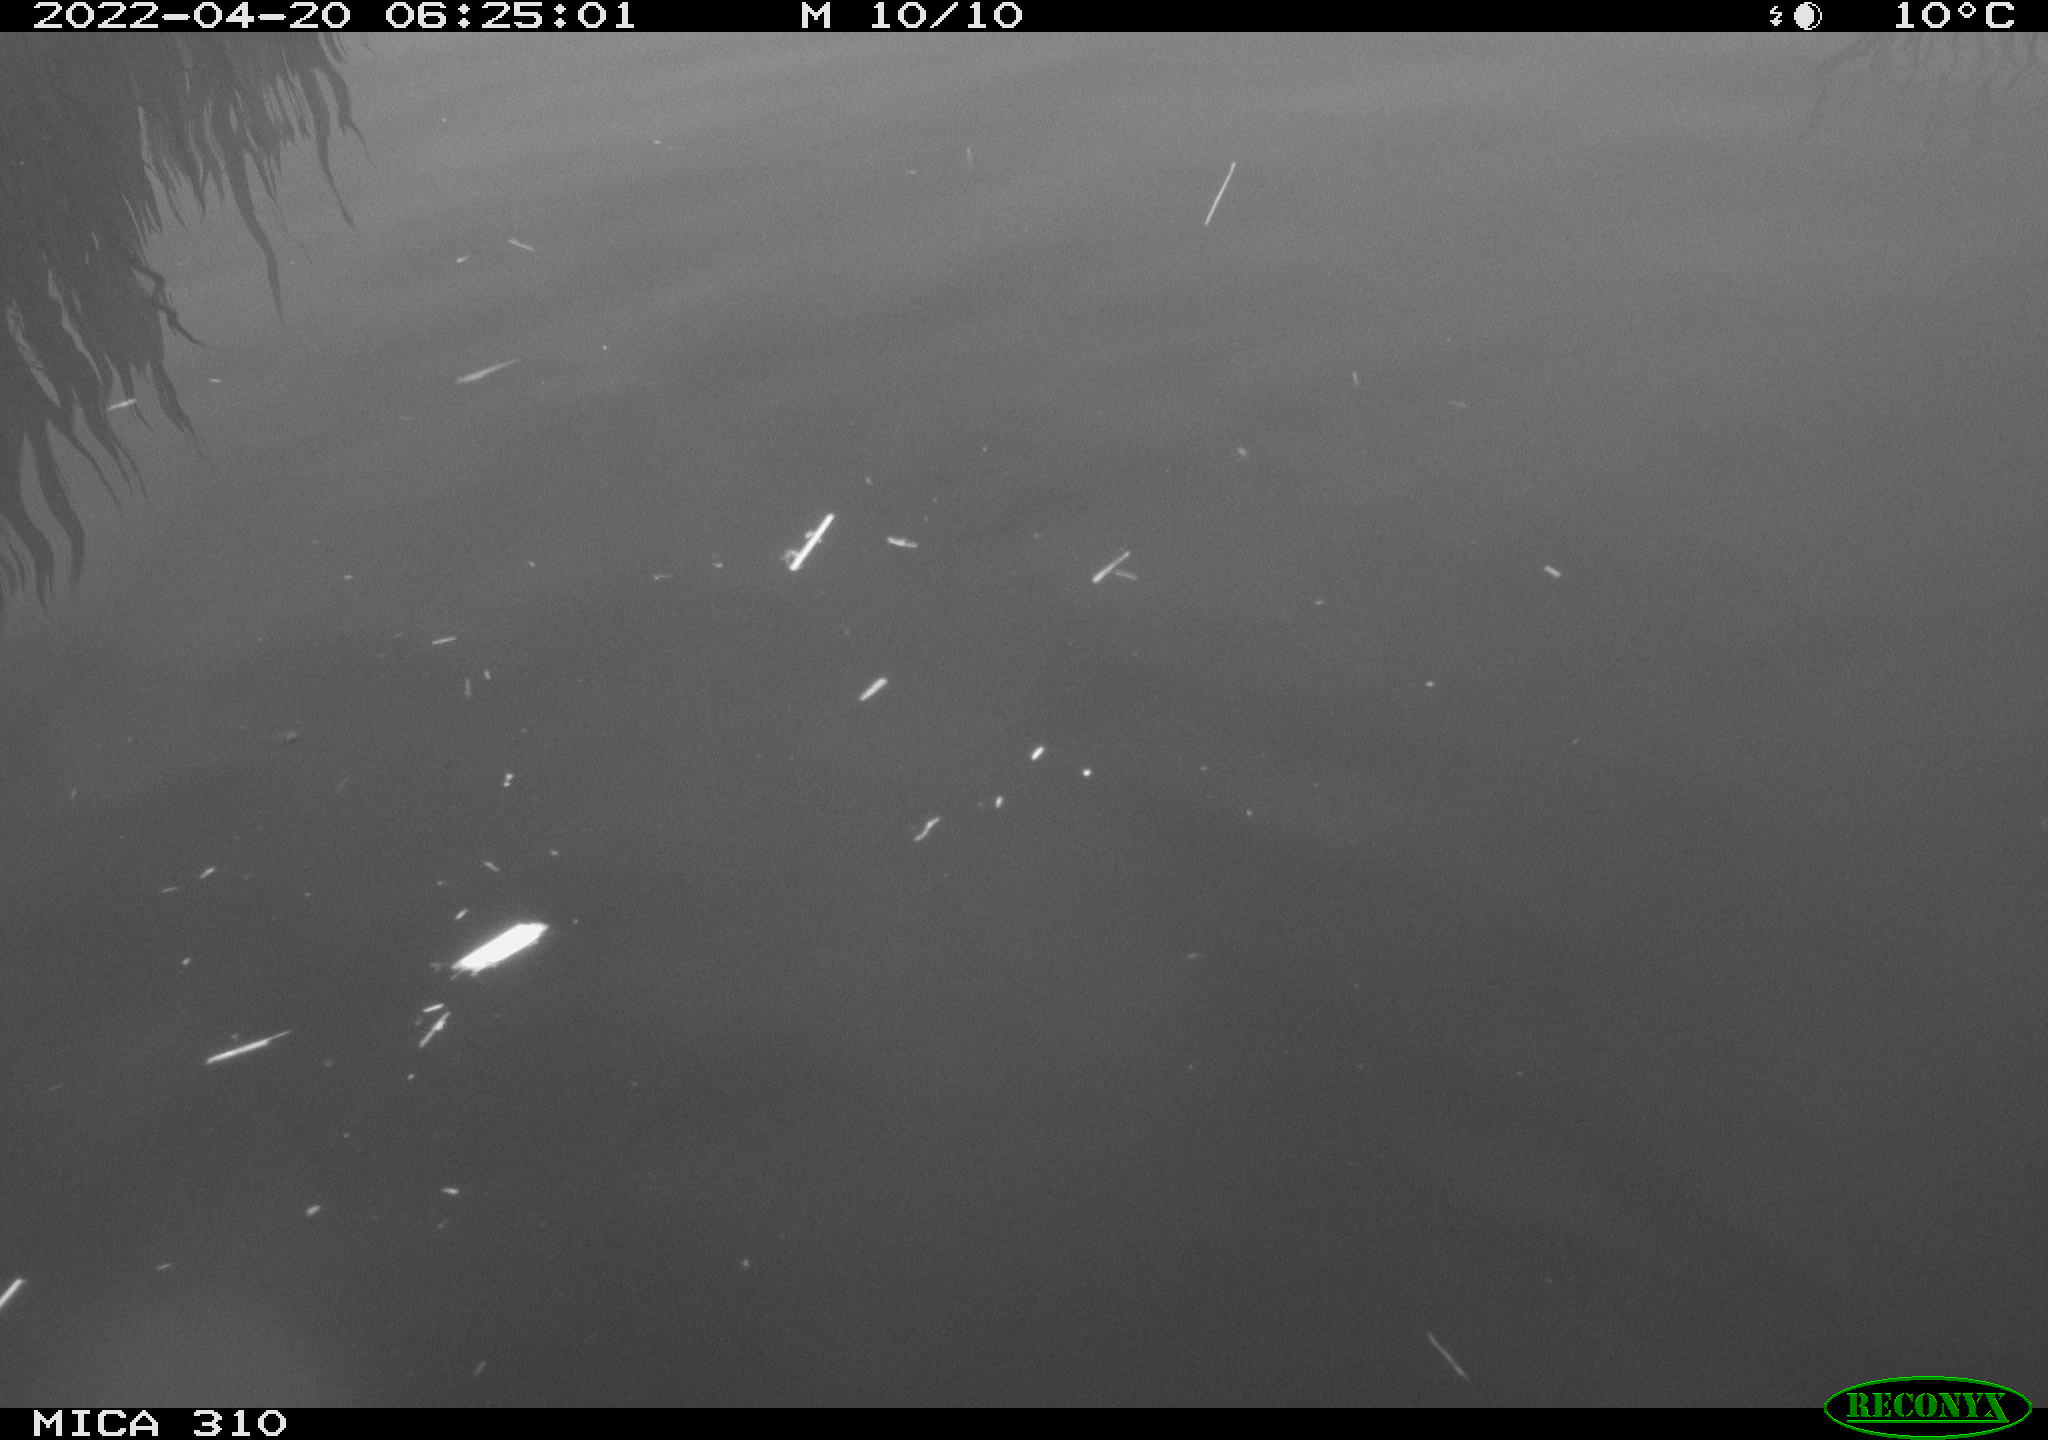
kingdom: Animalia
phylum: Chordata
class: Aves
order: Anseriformes
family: Anatidae
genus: Anas
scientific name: Anas platyrhynchos
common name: Mallard
